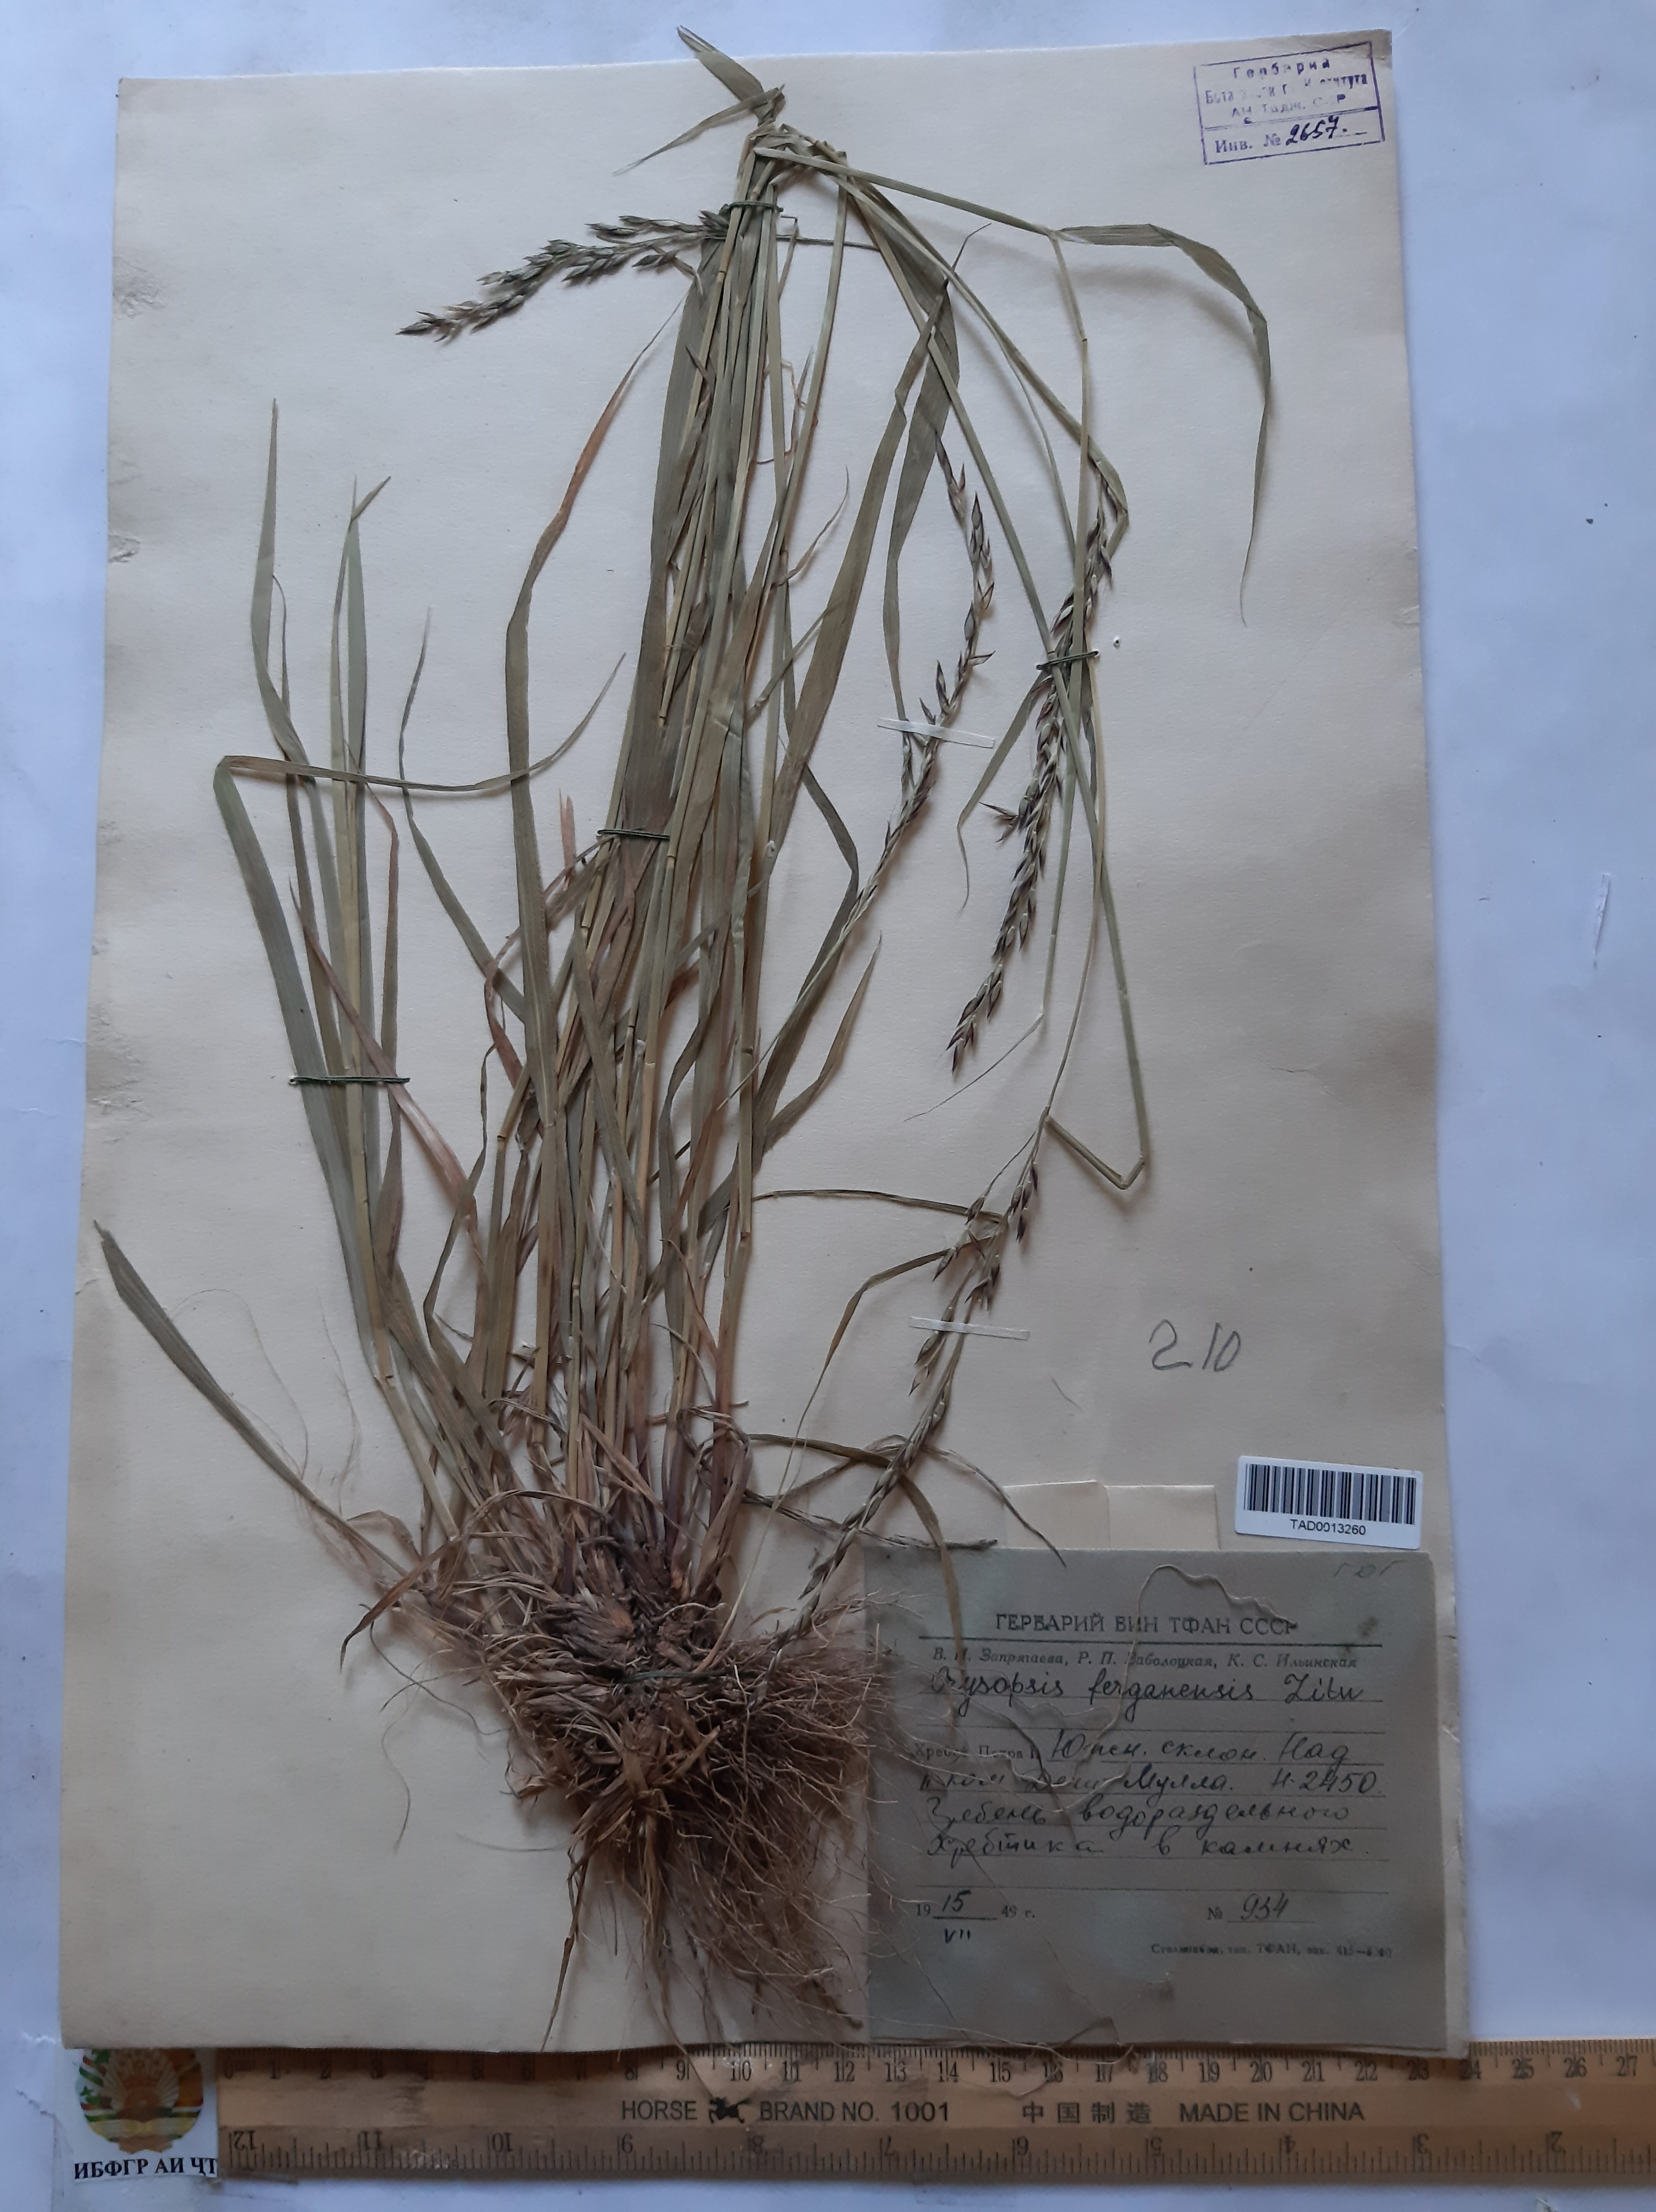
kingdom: Plantae
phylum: Tracheophyta
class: Liliopsida
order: Poales
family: Poaceae
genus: Piptatherum
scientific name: Piptatherum ferganense
